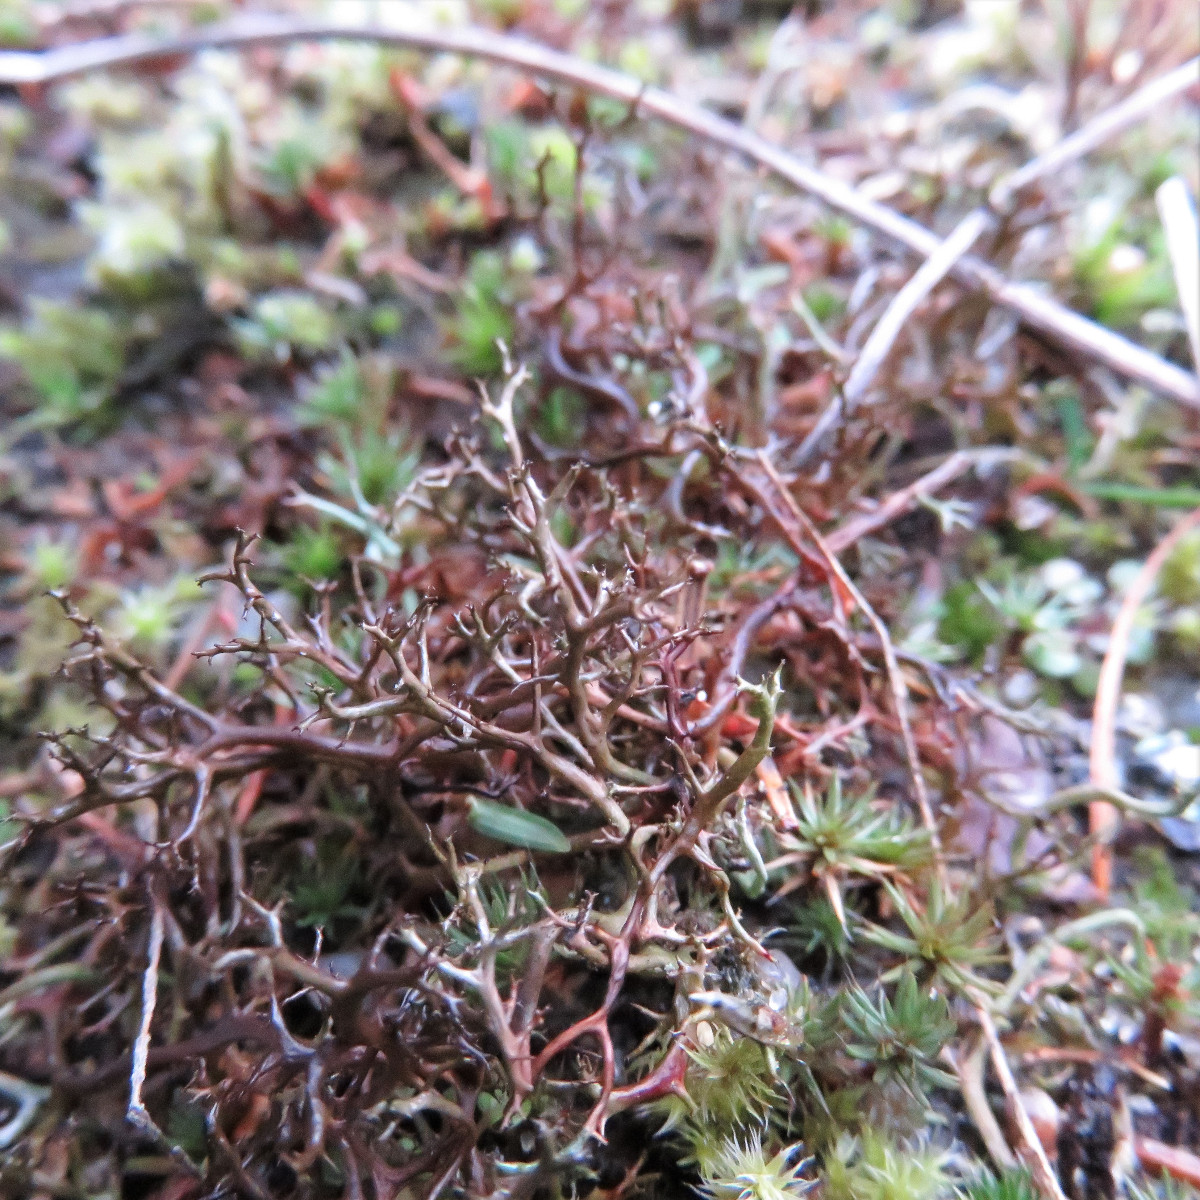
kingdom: Fungi
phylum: Ascomycota
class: Lecanoromycetes
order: Lecanorales
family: Parmeliaceae
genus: Cetraria
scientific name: Cetraria aculeata
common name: grubet tjørnelav
